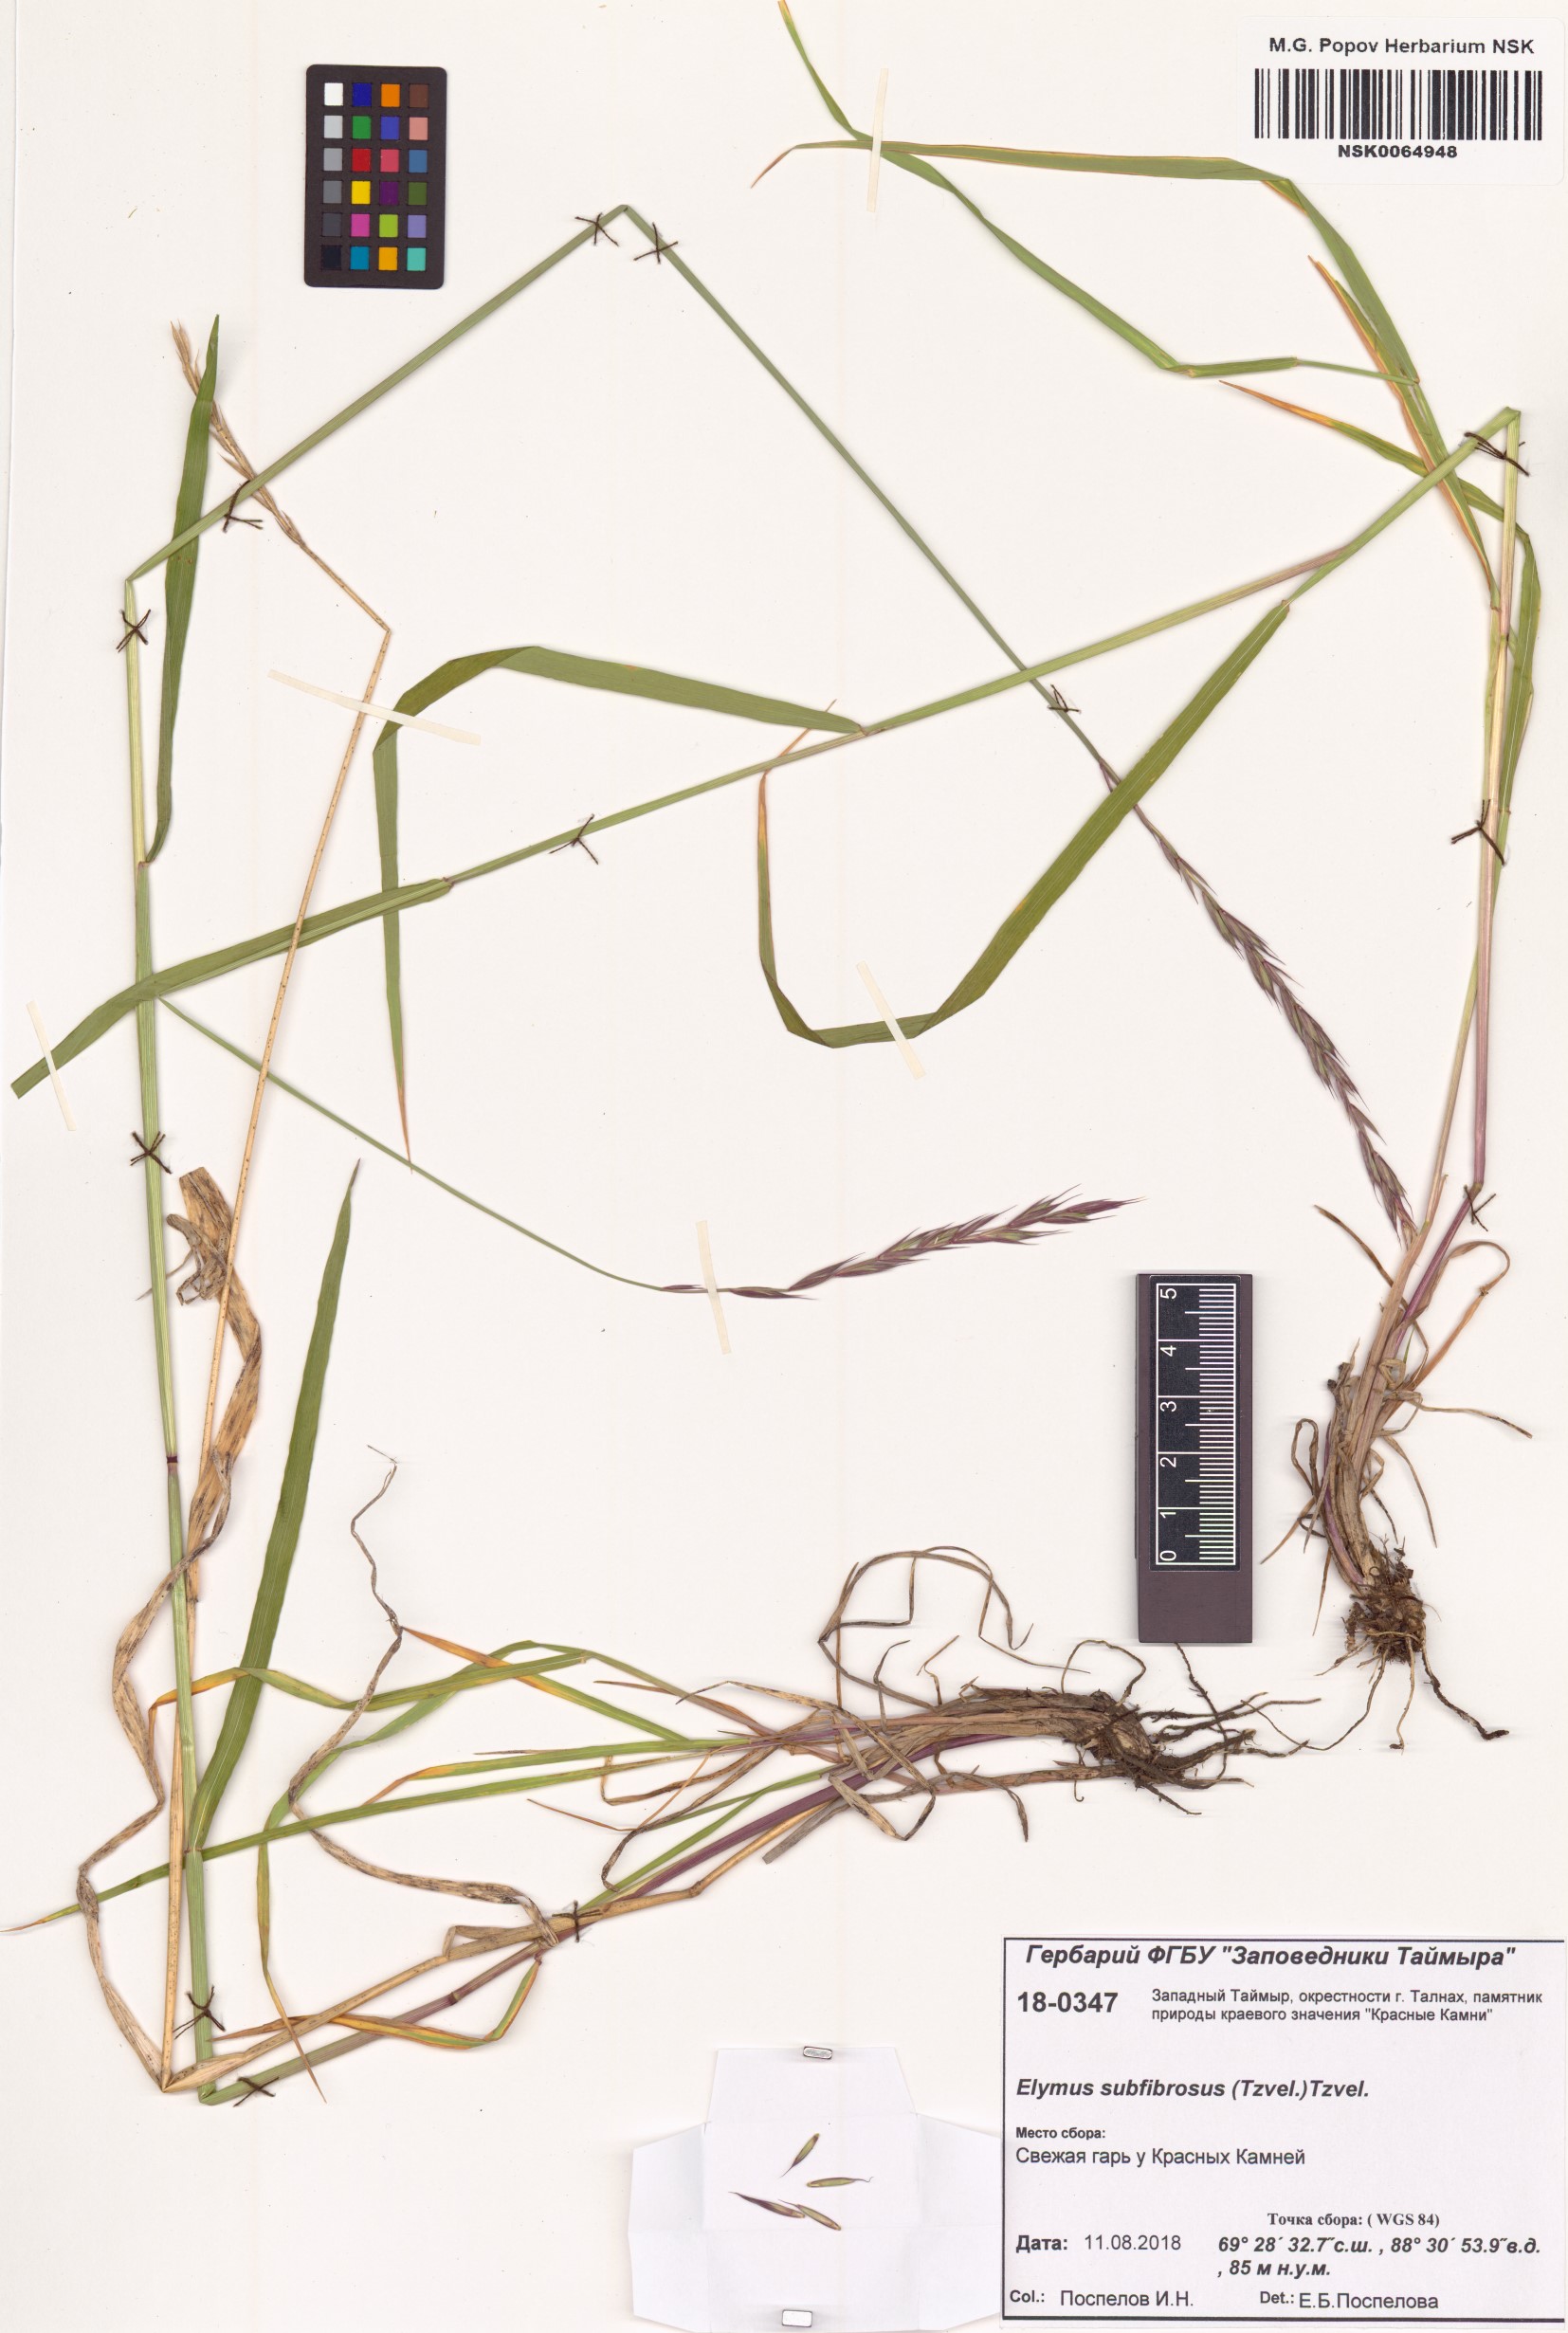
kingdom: Plantae
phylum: Tracheophyta
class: Liliopsida
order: Poales
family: Poaceae
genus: Elymus
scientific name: Elymus fibrosus
